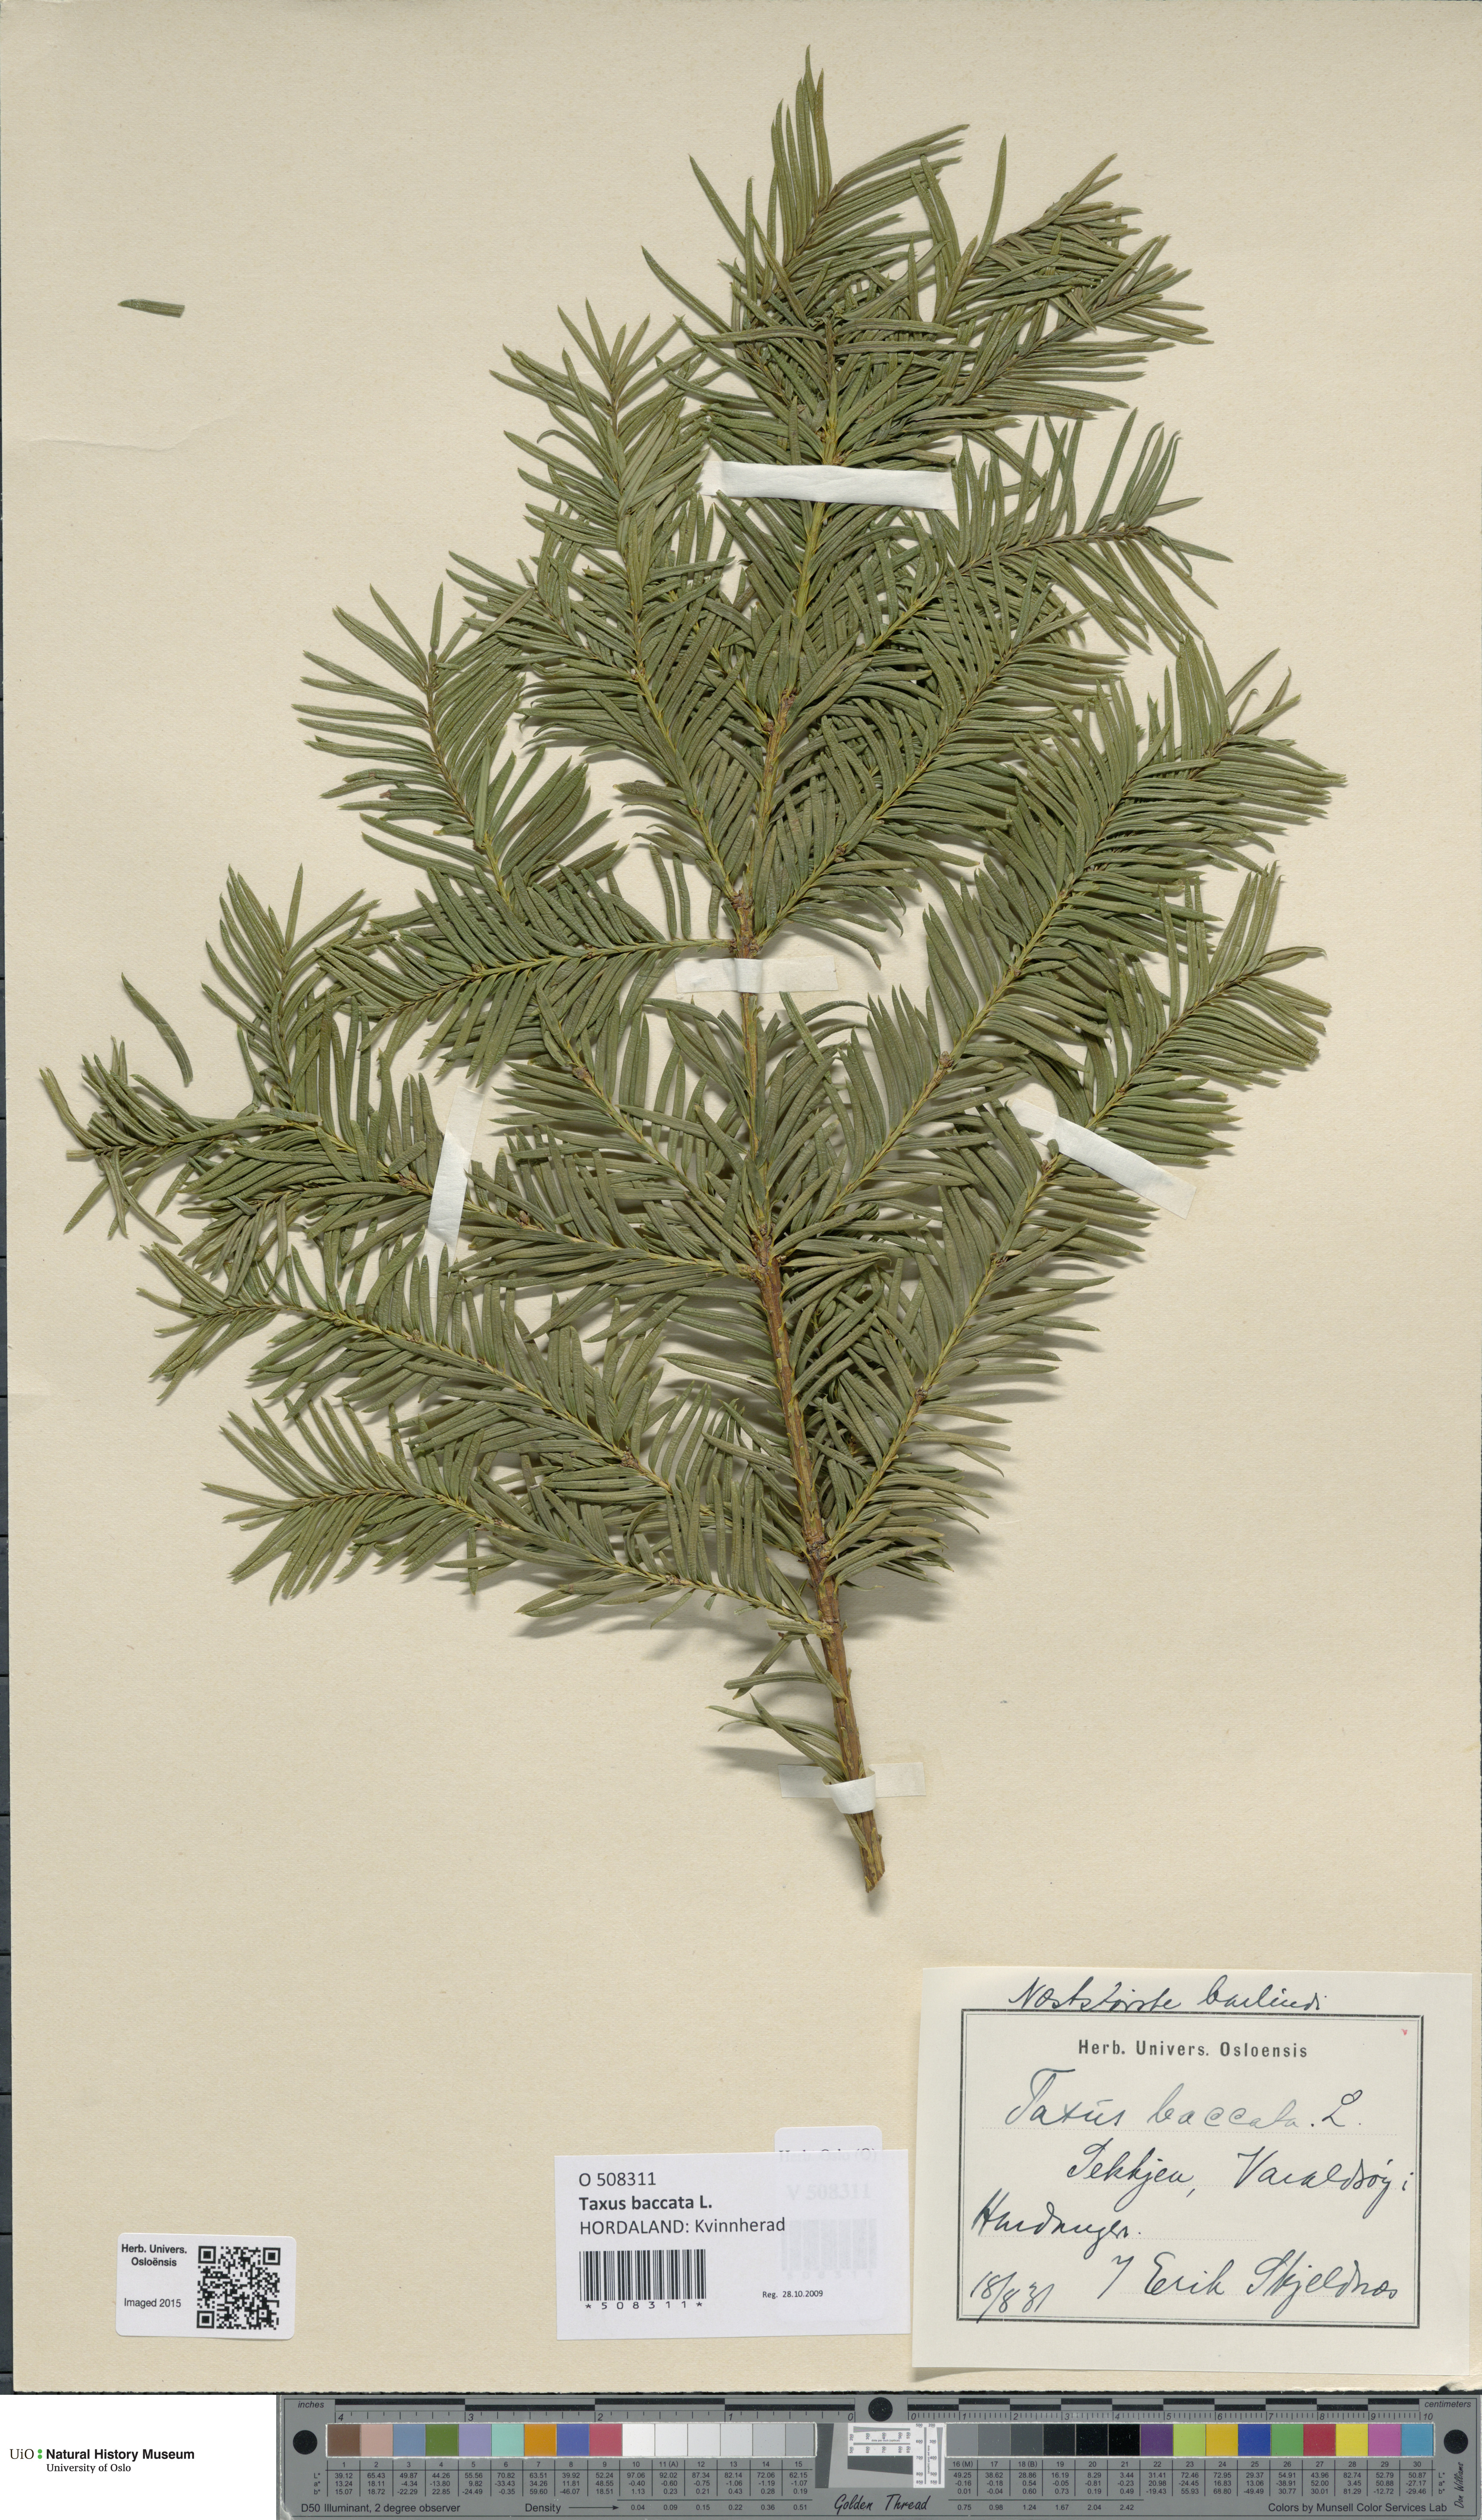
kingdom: Plantae
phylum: Tracheophyta
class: Pinopsida
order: Pinales
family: Taxaceae
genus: Taxus
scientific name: Taxus baccata
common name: Yew
